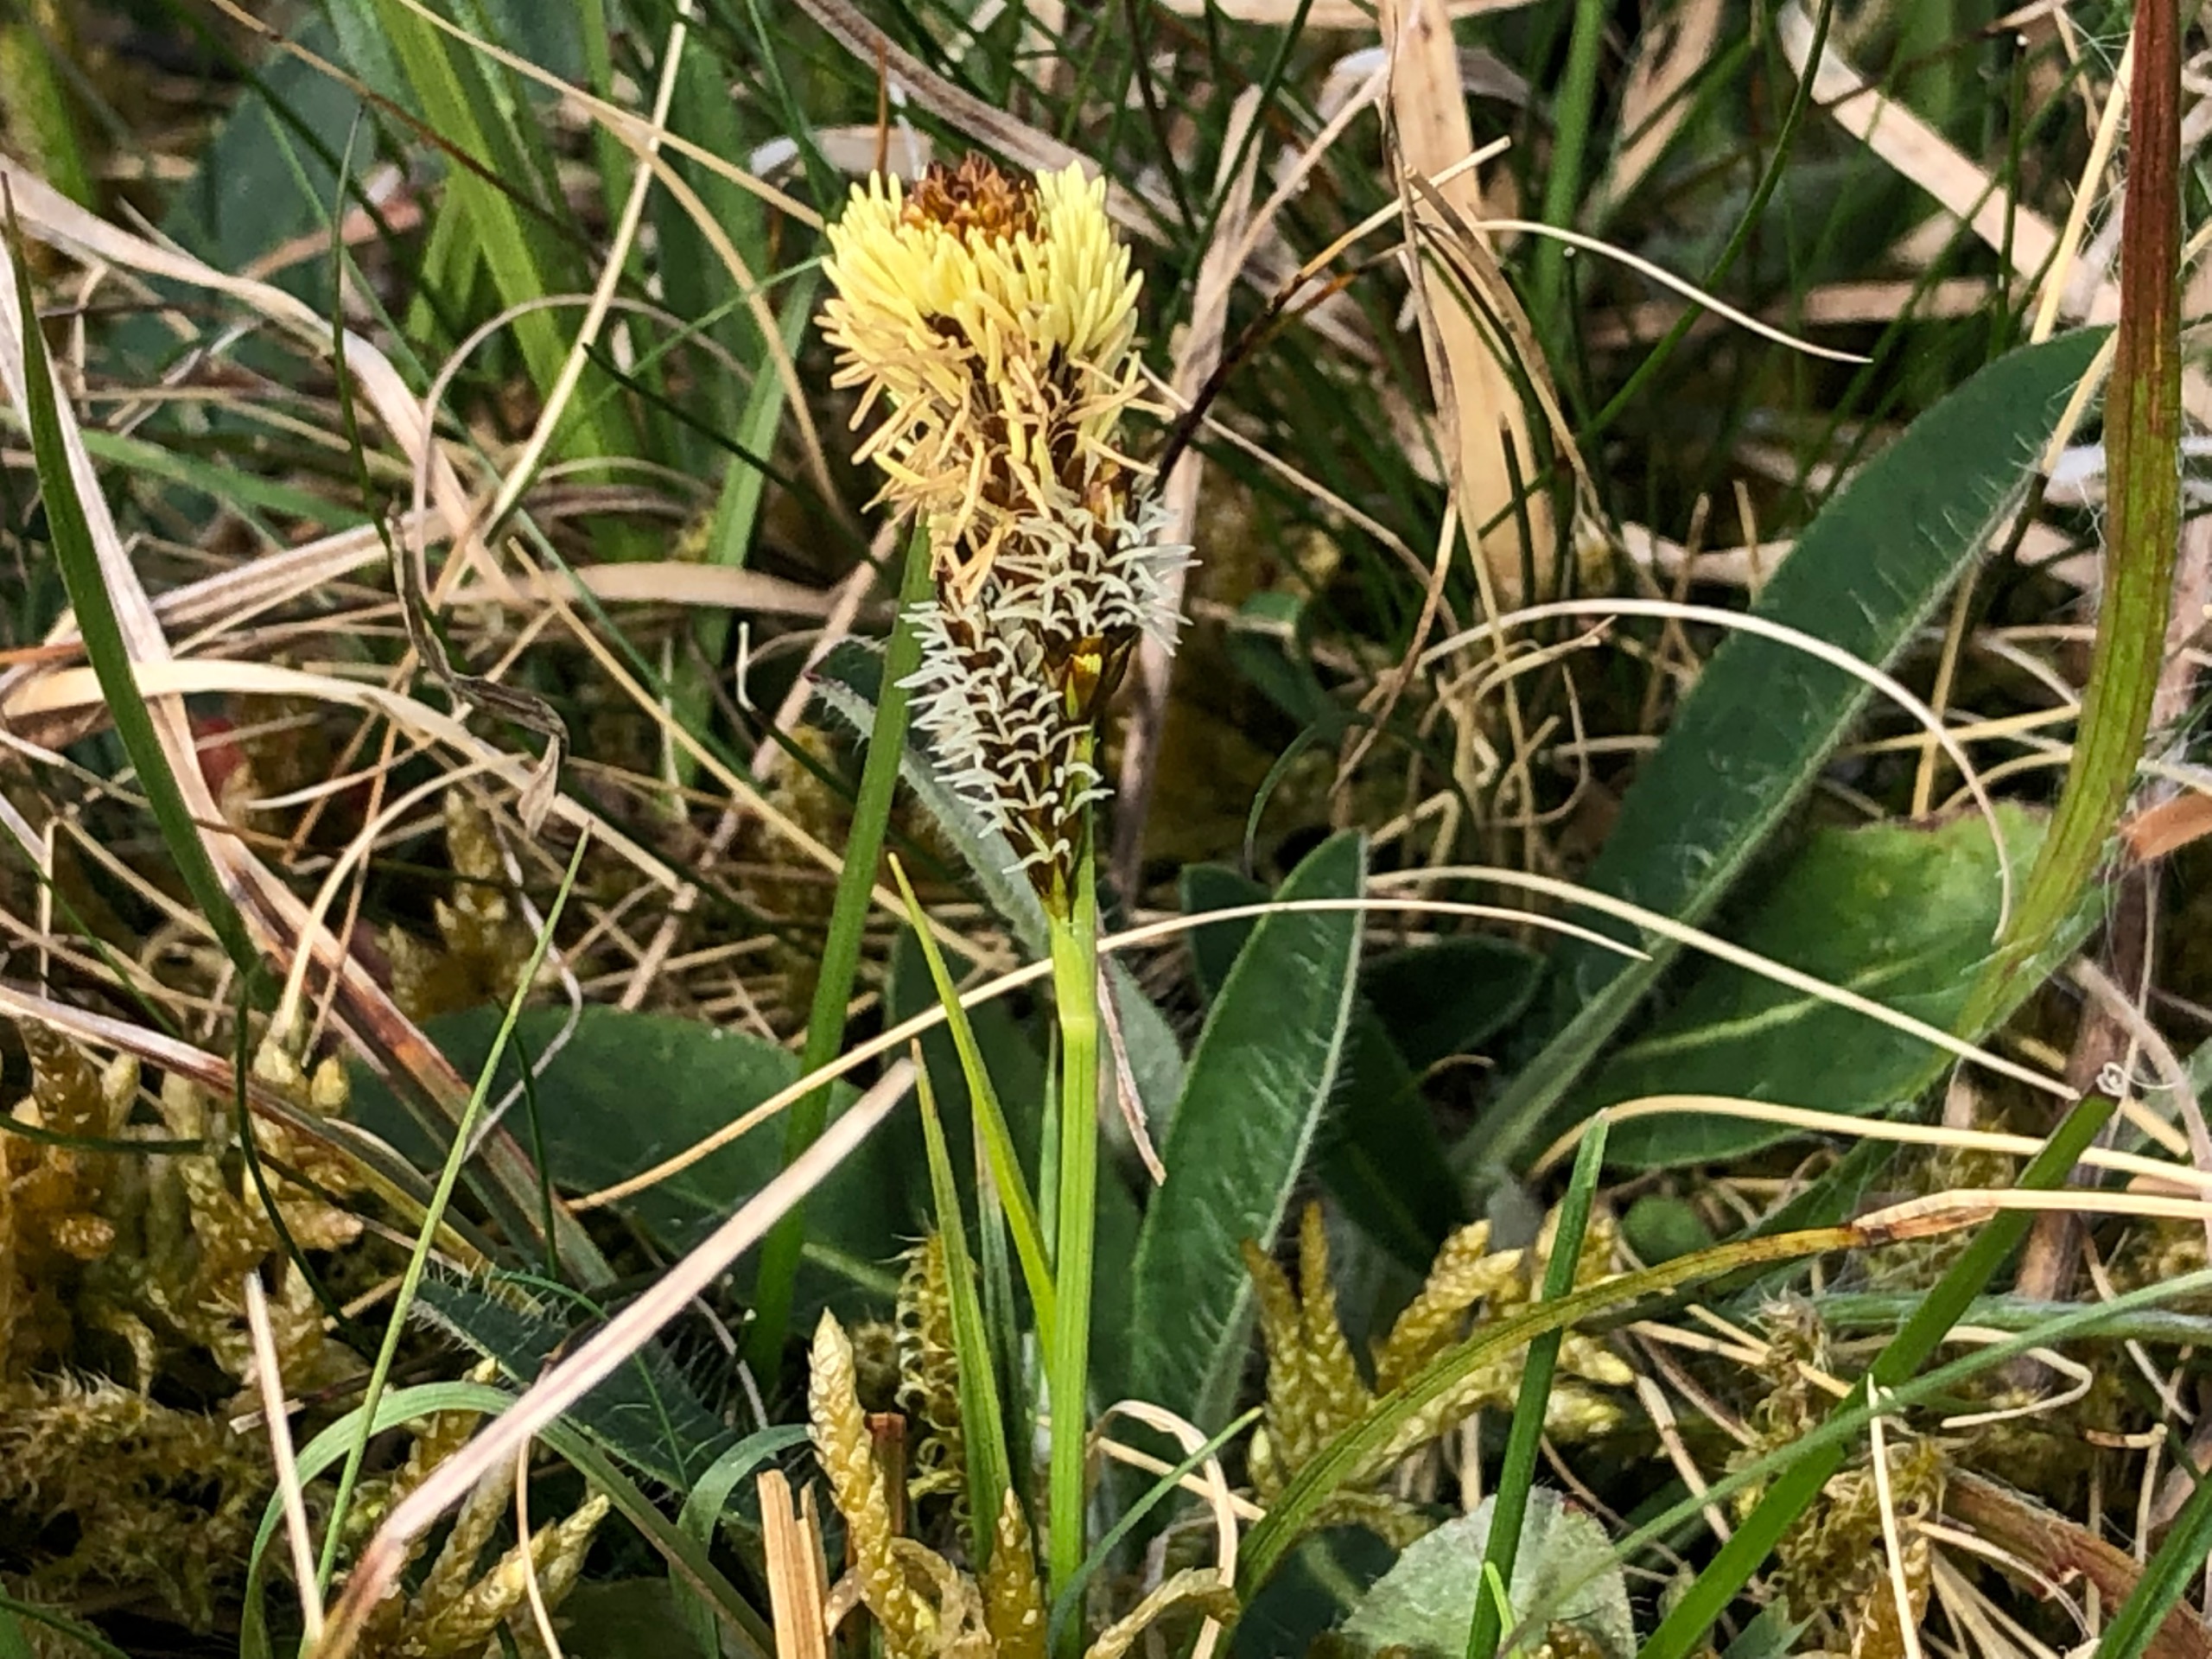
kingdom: Plantae
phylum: Tracheophyta
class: Liliopsida
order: Poales
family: Cyperaceae
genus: Carex
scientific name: Carex caryophyllea
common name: Vår-star
